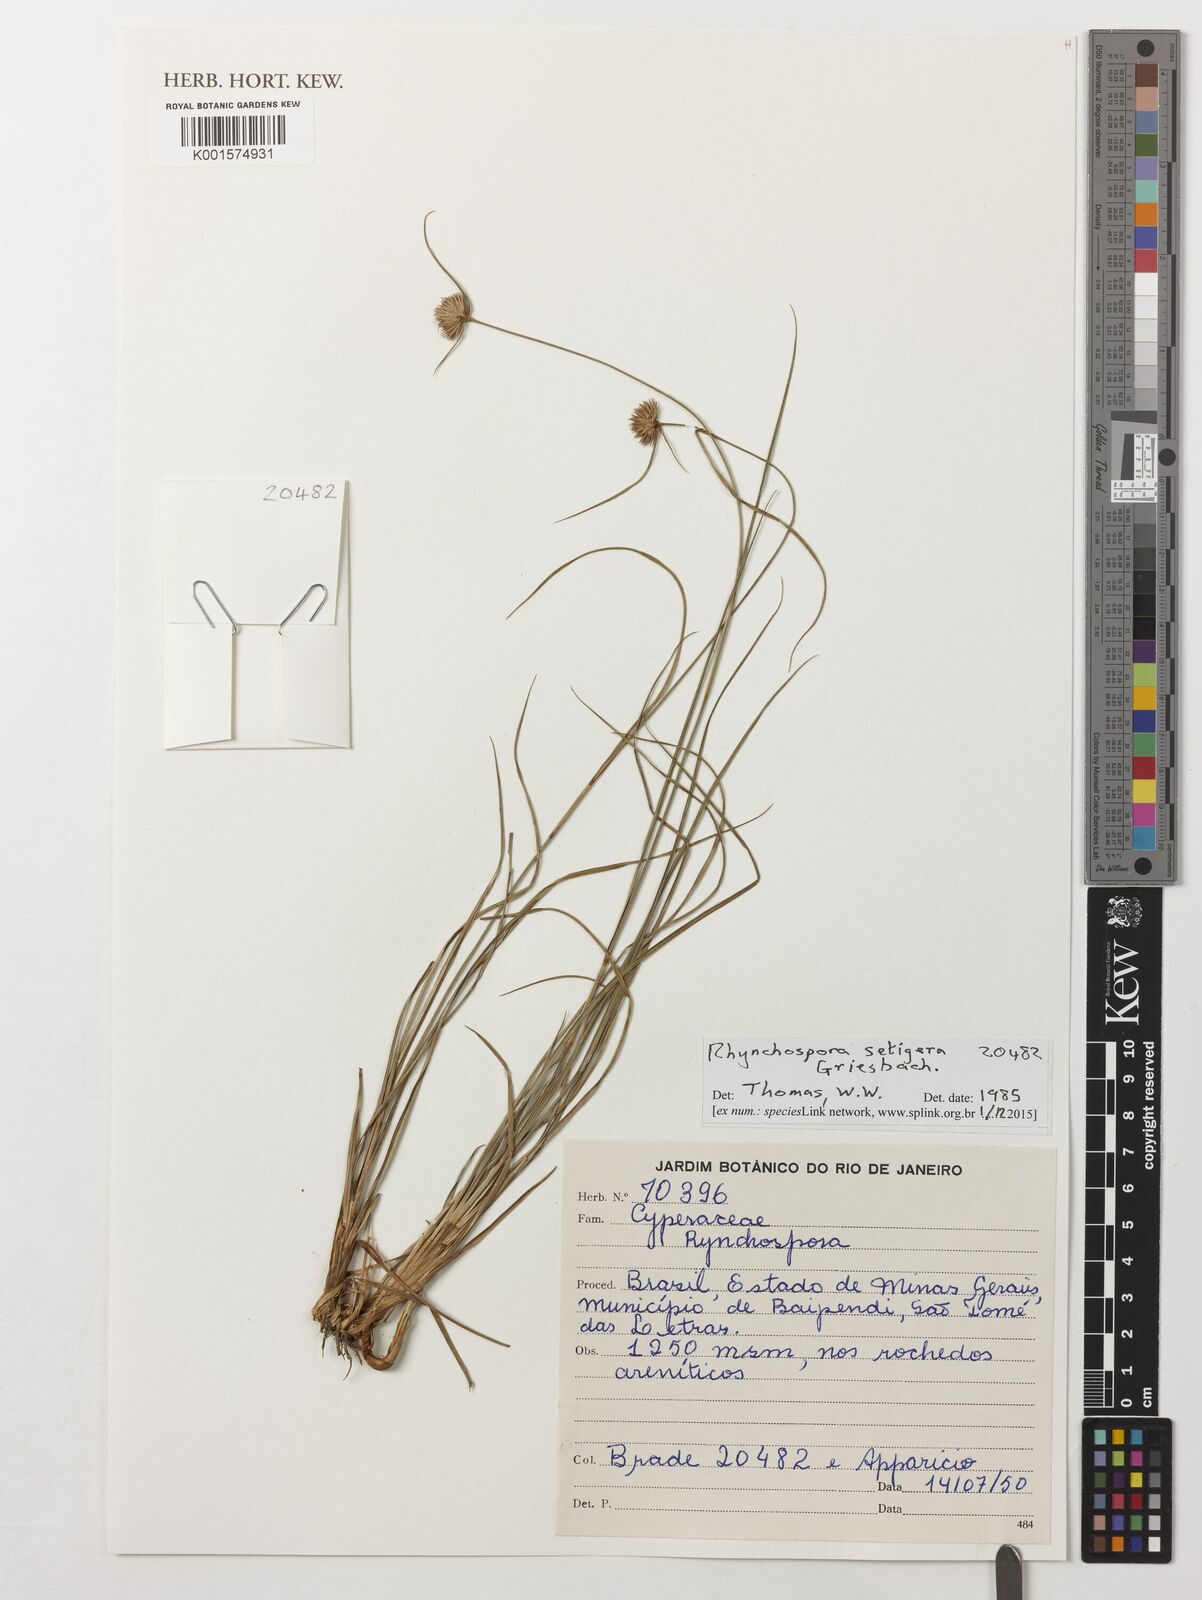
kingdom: Plantae
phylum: Tracheophyta
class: Liliopsida
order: Poales
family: Cyperaceae
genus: Rhynchospora
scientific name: Rhynchospora setigera
